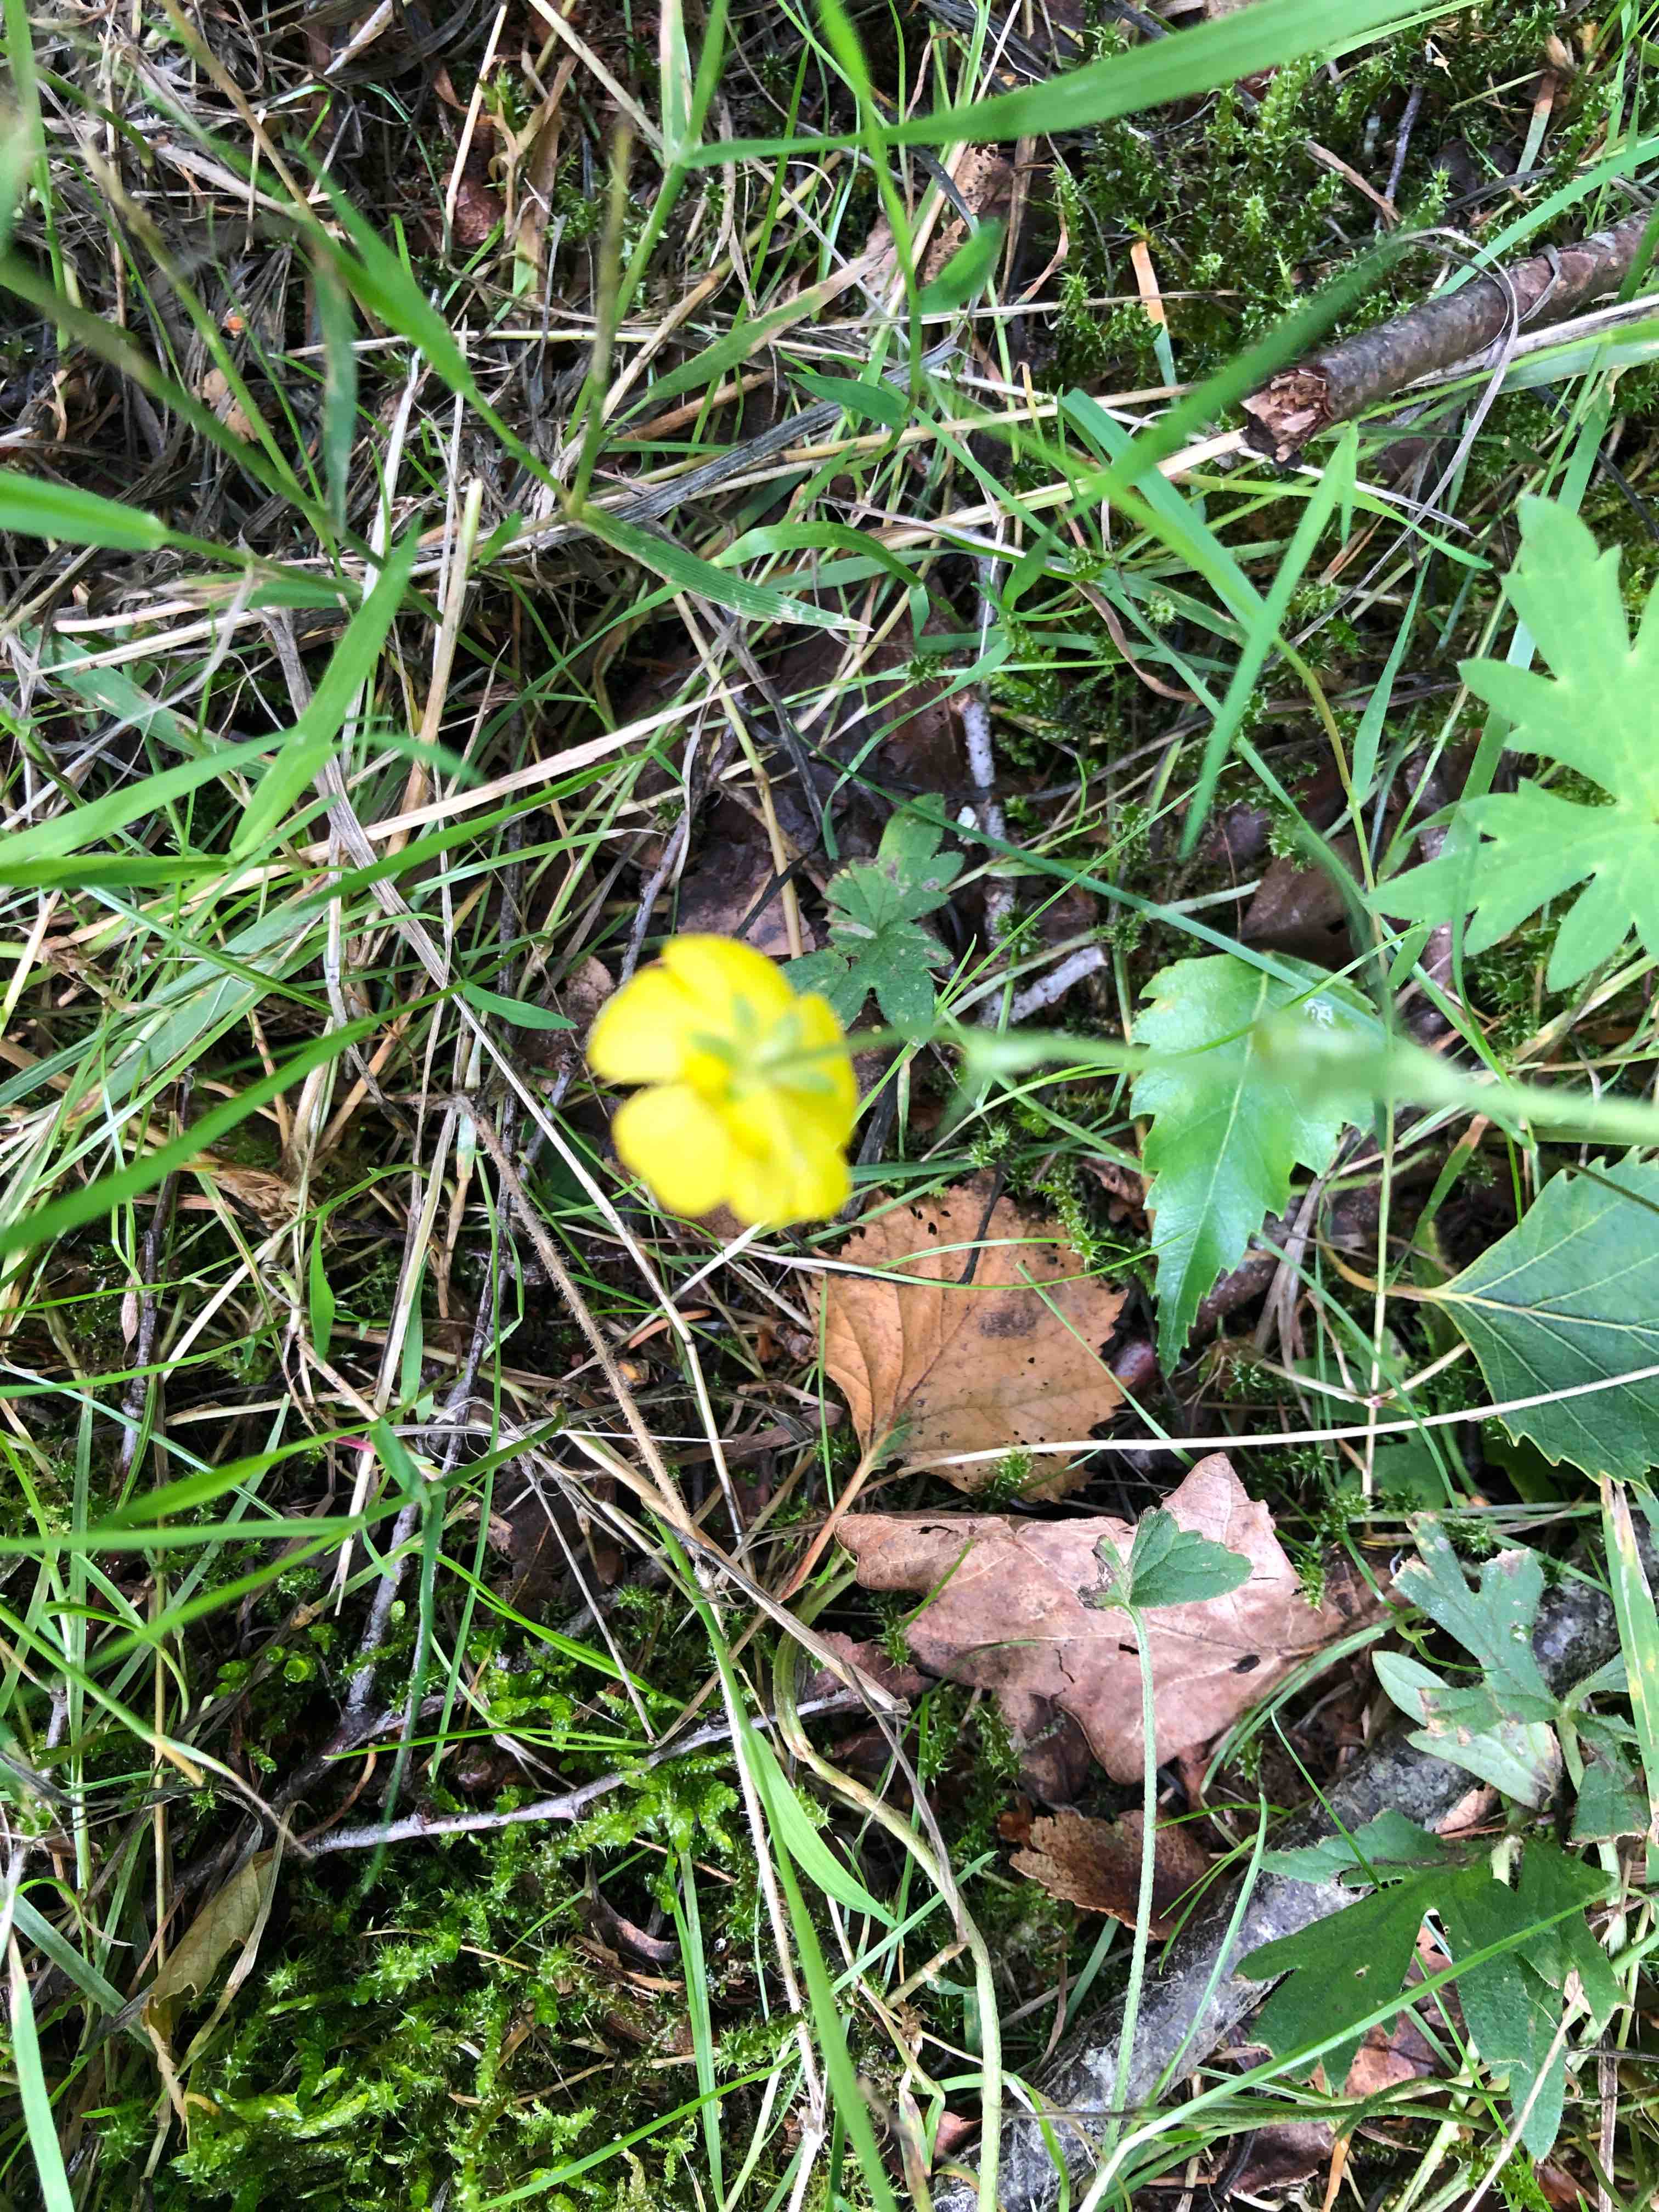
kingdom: Fungi
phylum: Basidiomycota
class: Pucciniomycetes
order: Pucciniales
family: Pucciniaceae
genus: Puccinia
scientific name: Puccinia magnusiana
